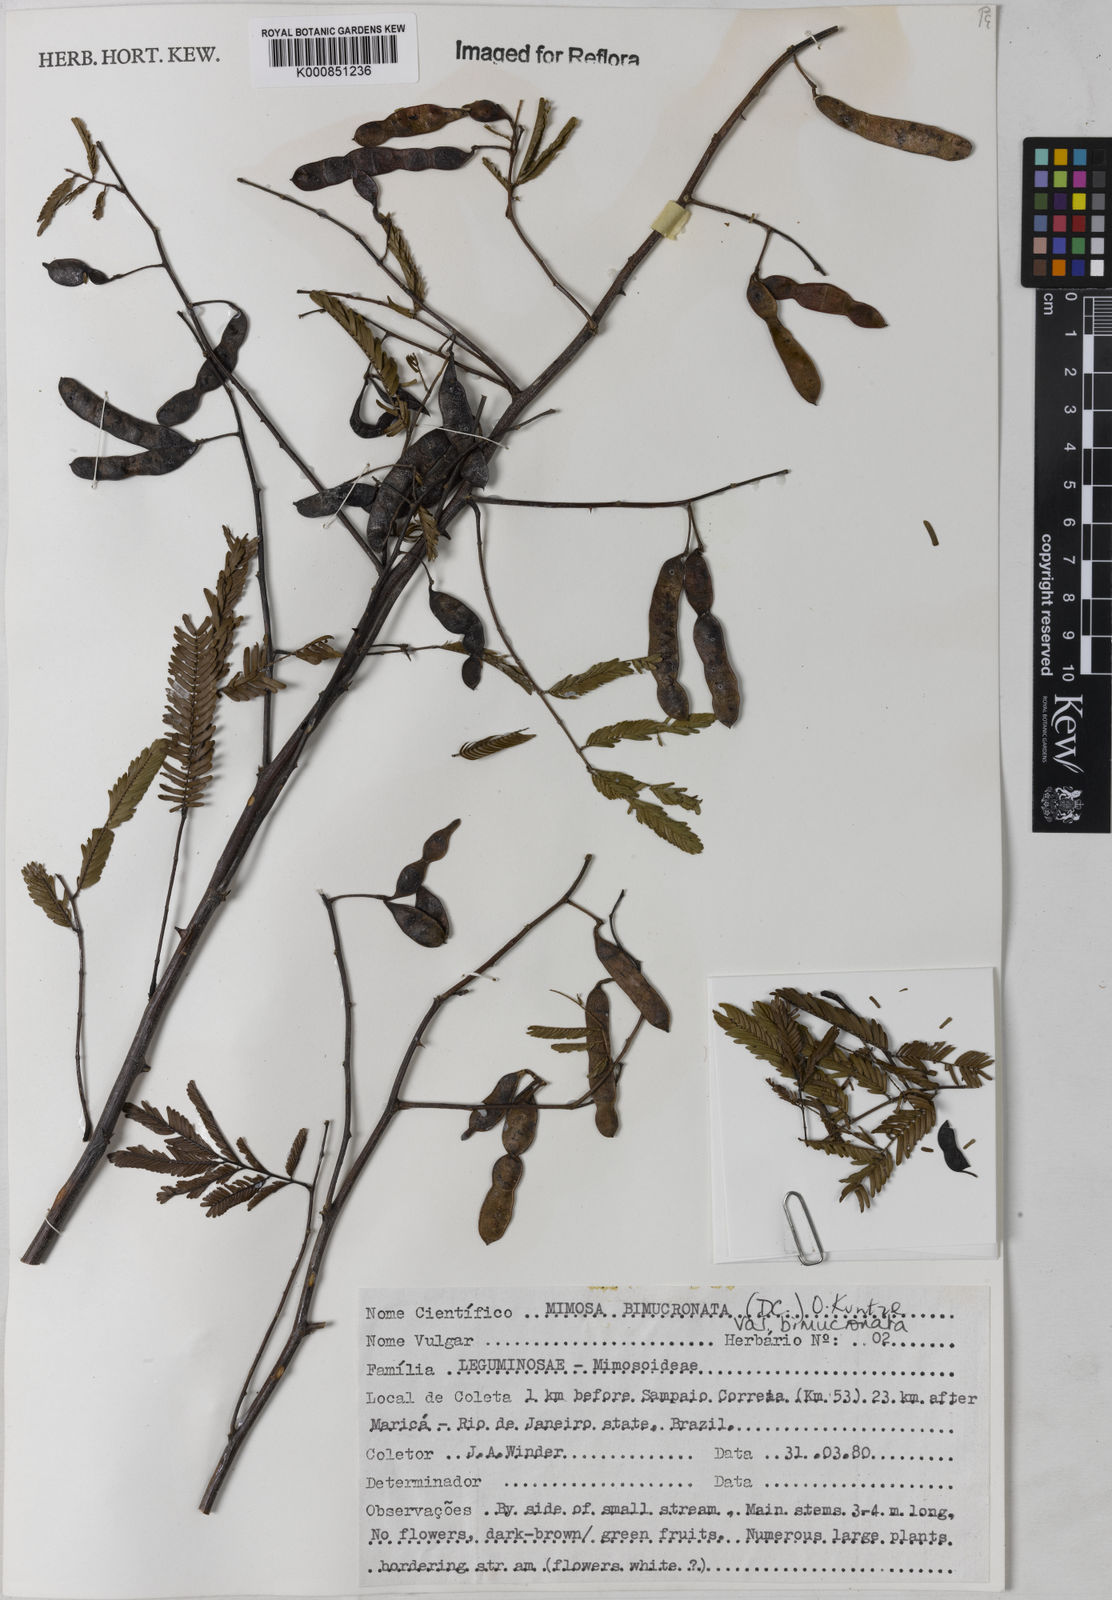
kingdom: Plantae
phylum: Tracheophyta
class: Magnoliopsida
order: Fabales
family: Fabaceae
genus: Mimosa
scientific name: Mimosa bimucronata
